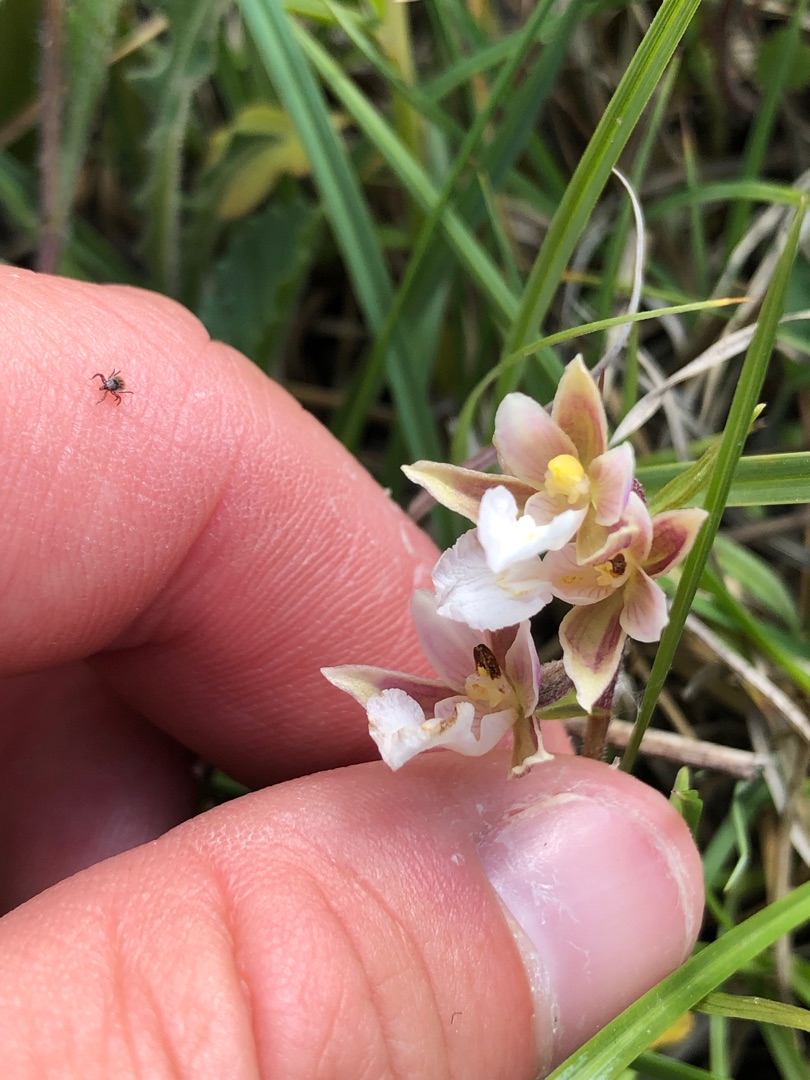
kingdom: Plantae
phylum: Tracheophyta
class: Liliopsida
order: Asparagales
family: Orchidaceae
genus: Epipactis
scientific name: Epipactis palustris
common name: Sump-hullæbe
